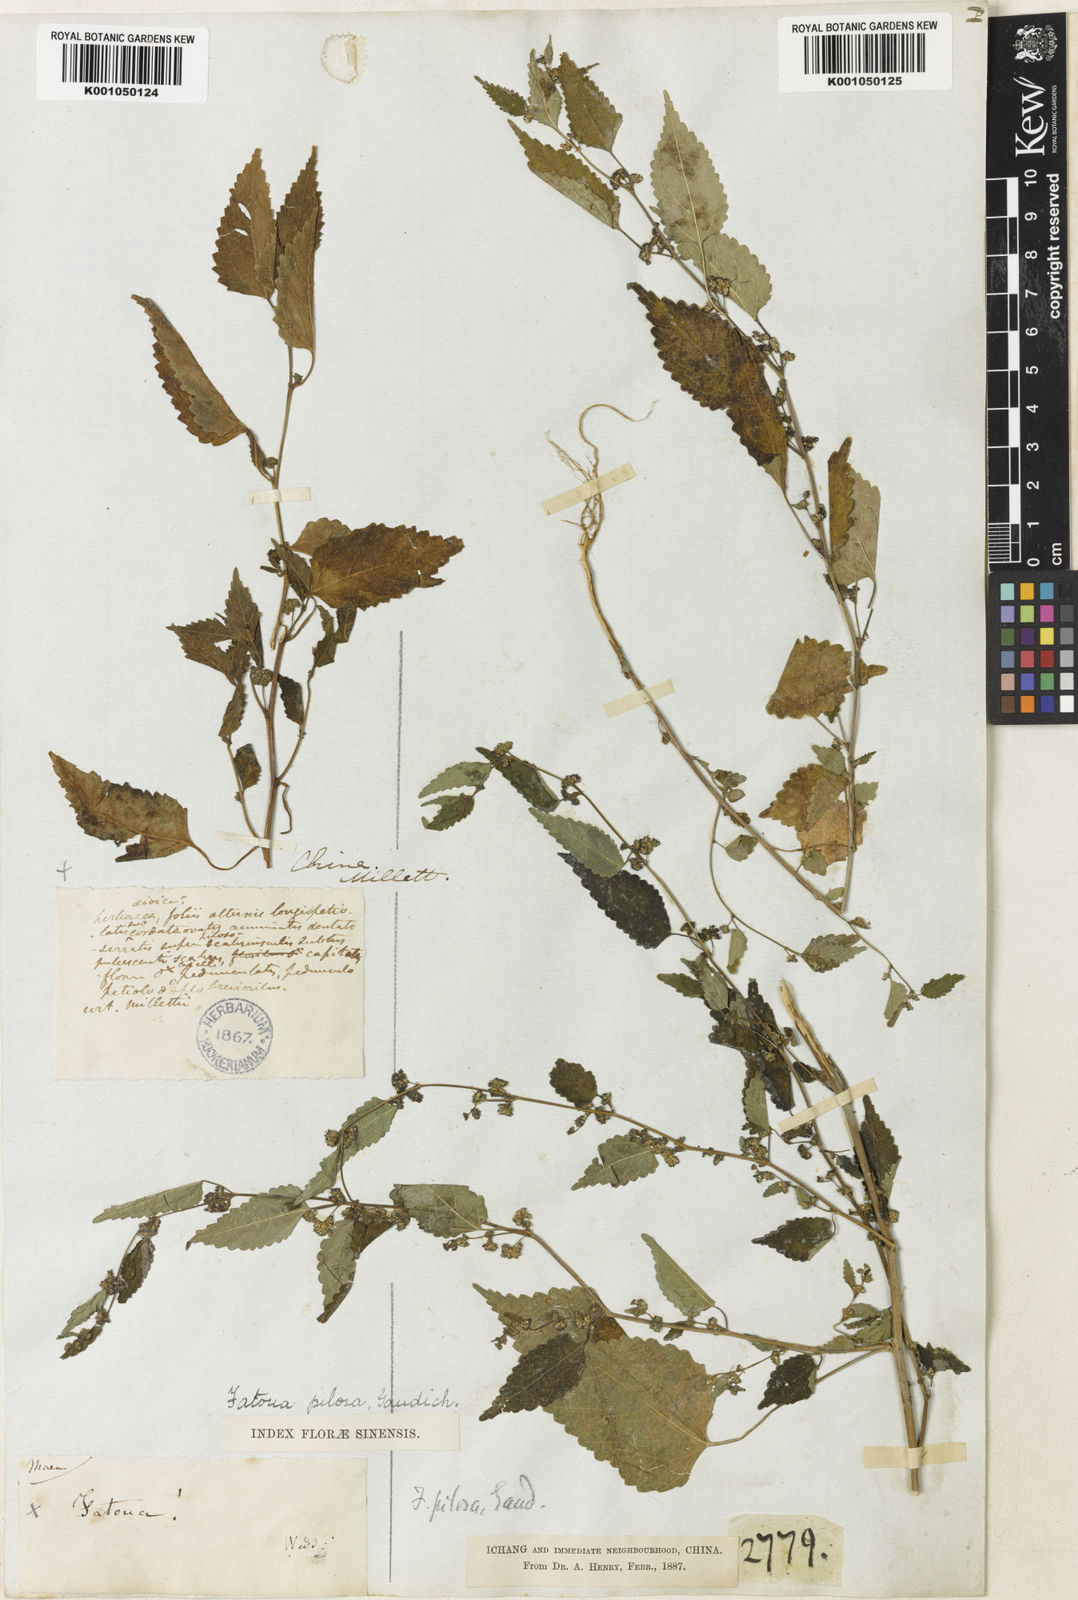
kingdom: Plantae
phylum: Tracheophyta
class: Magnoliopsida
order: Rosales
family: Moraceae
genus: Fatoua
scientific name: Fatoua villosa
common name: Hairy crabweed
